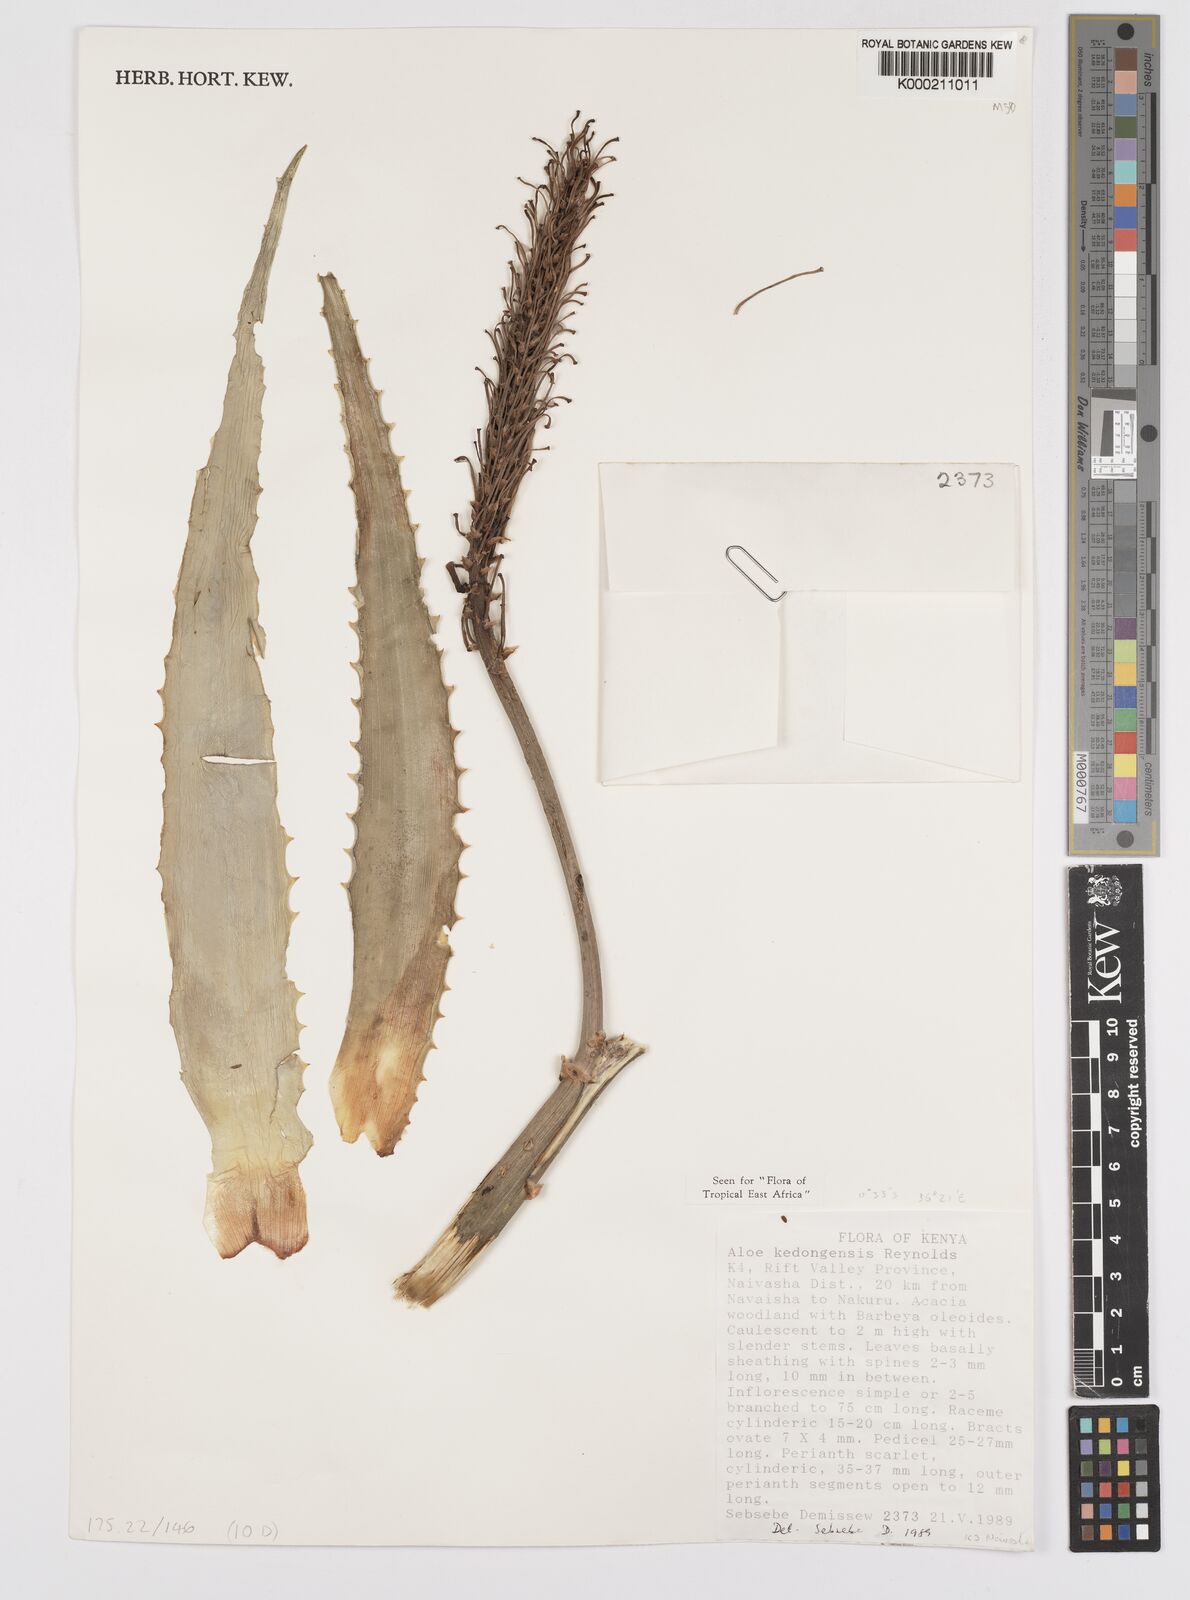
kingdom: Plantae
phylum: Tracheophyta
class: Liliopsida
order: Asparagales
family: Asphodelaceae
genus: Aloe
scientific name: Aloe kedongensis
